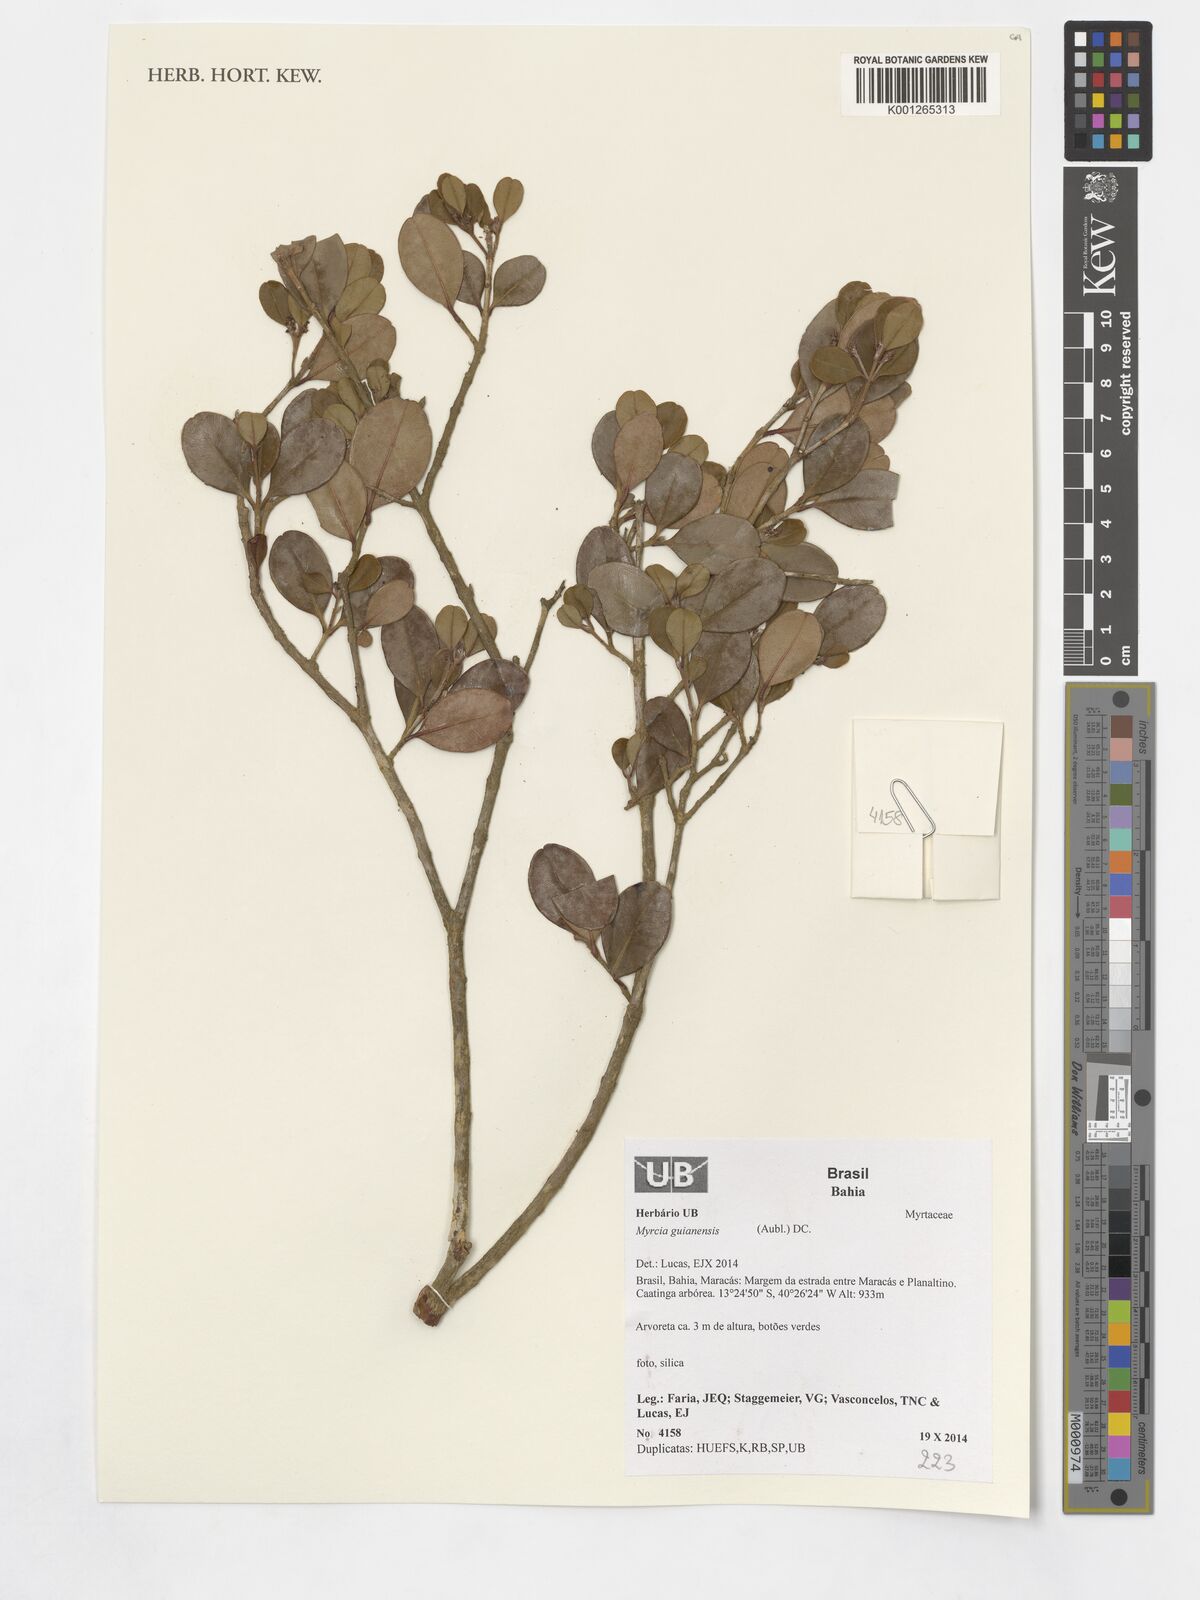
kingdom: Plantae
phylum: Tracheophyta
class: Magnoliopsida
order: Myrtales
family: Myrtaceae
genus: Myrcia
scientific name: Myrcia guianensis
